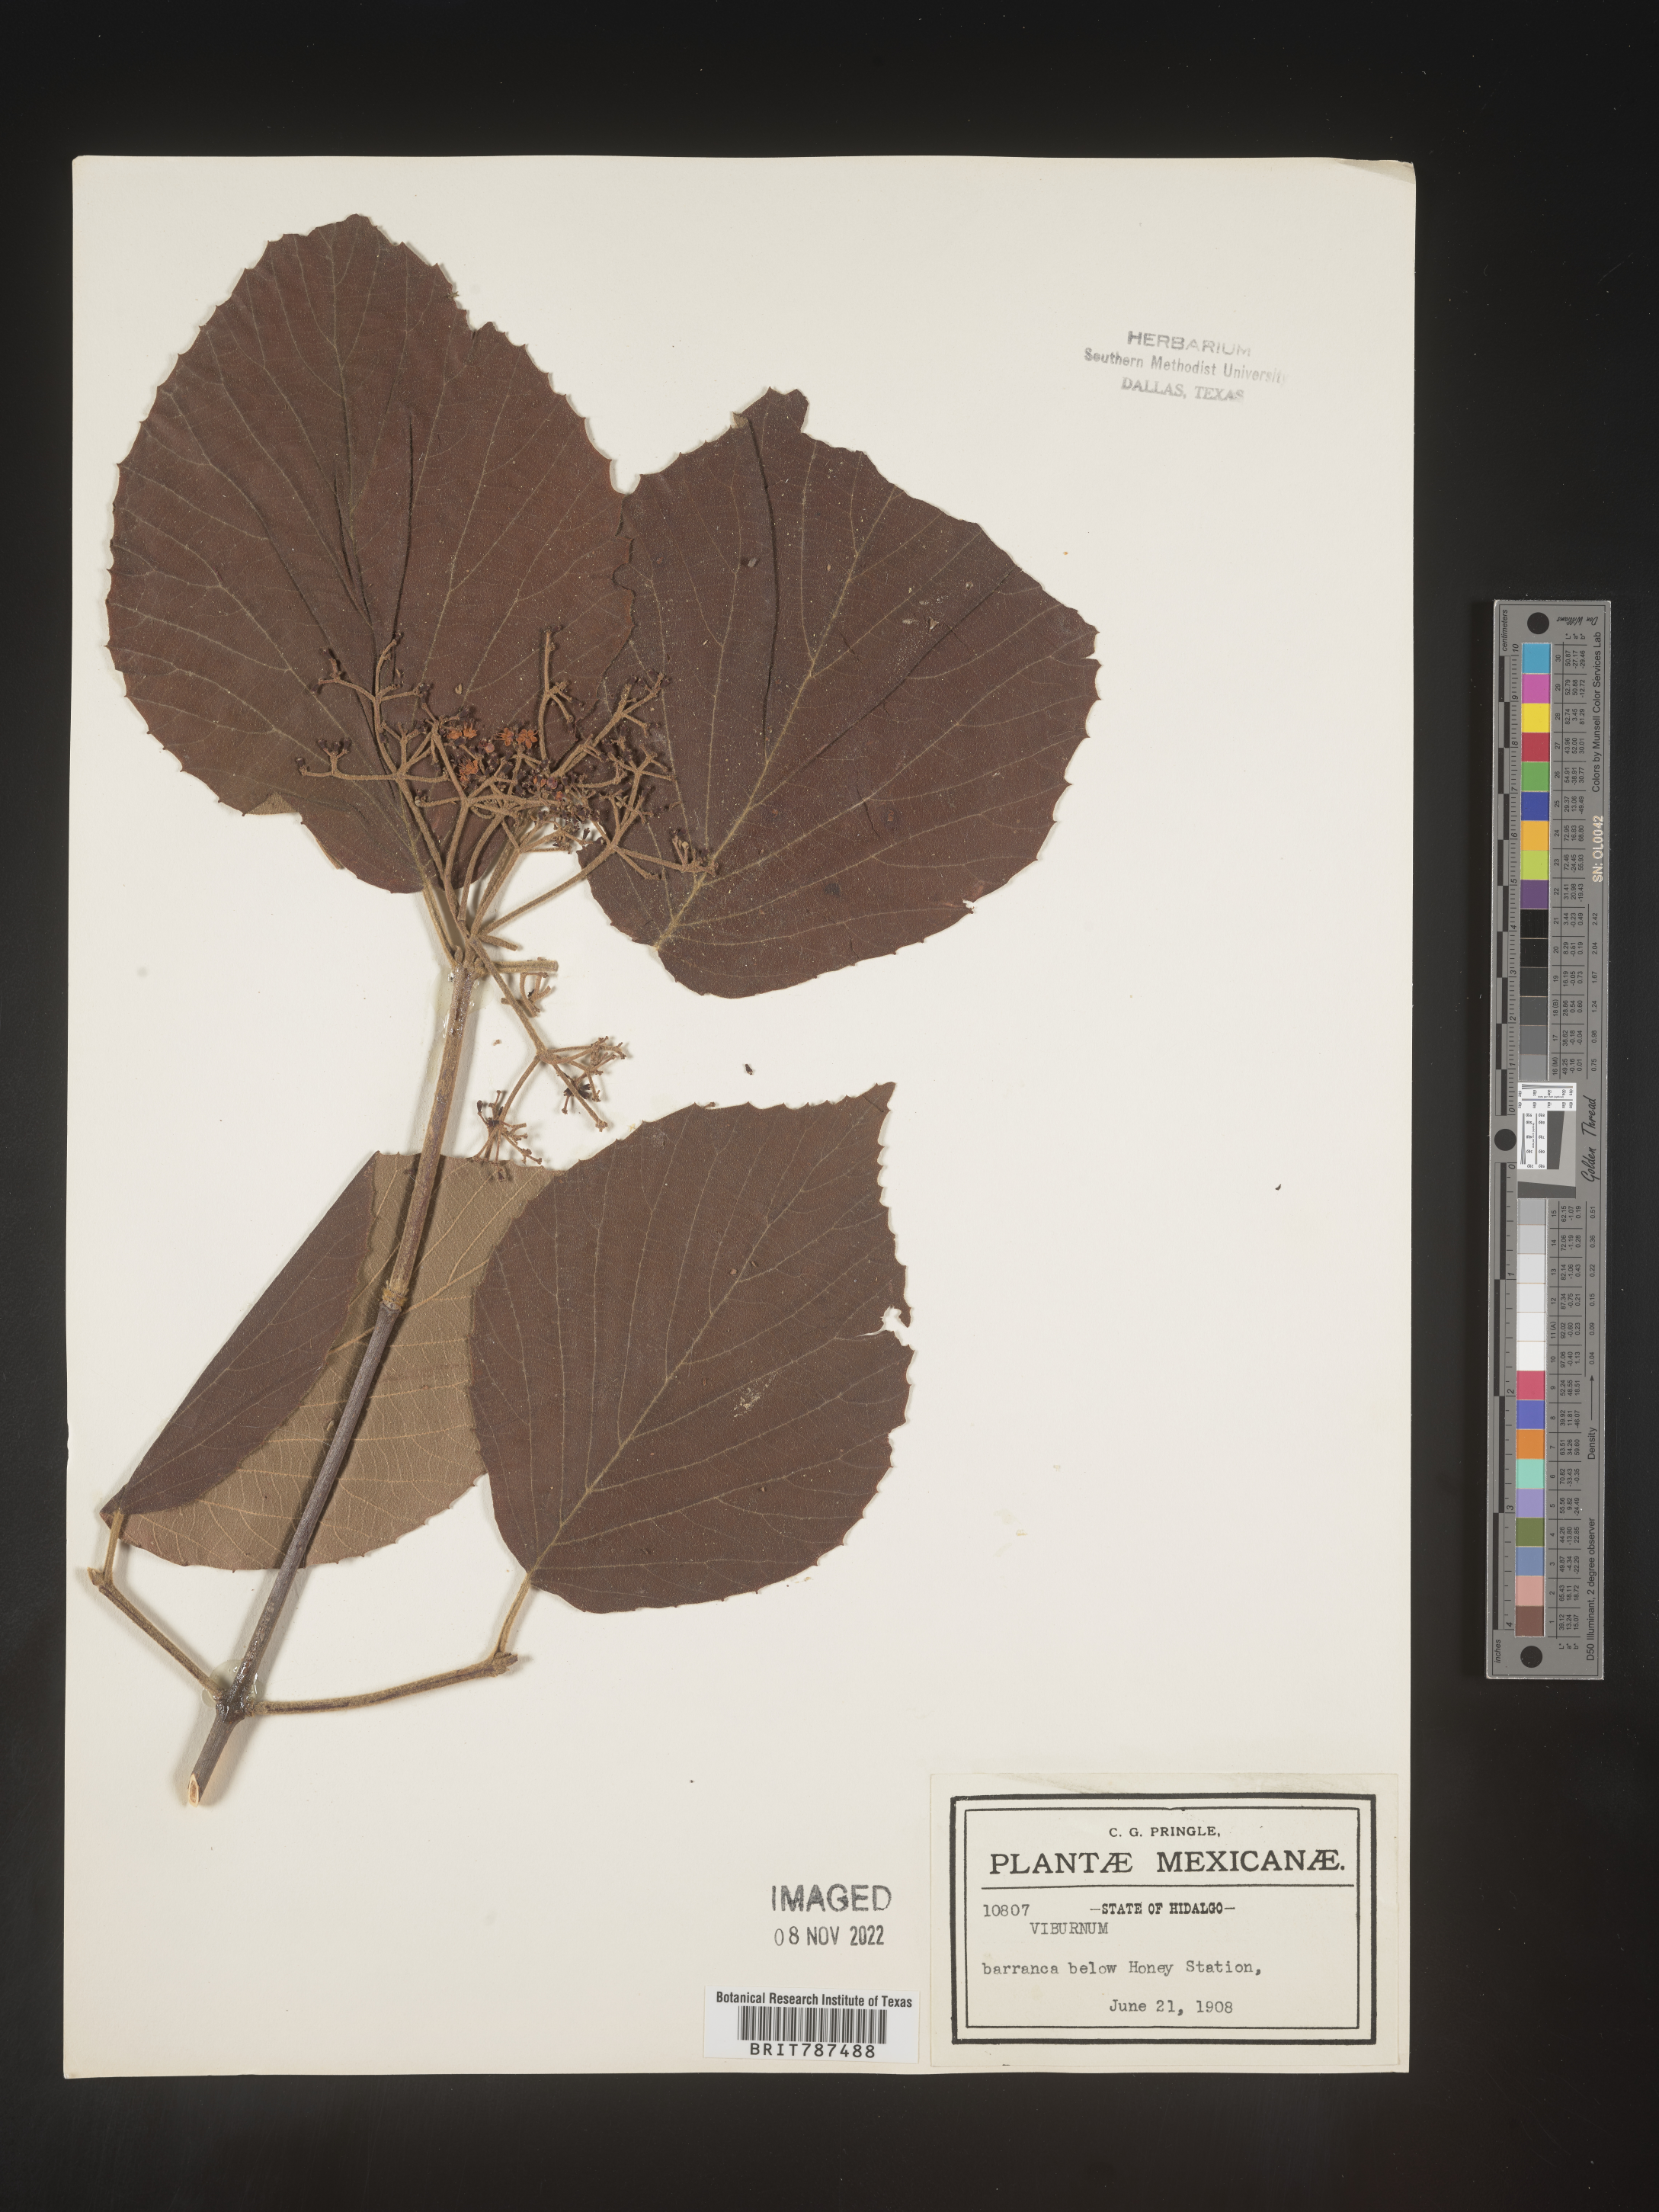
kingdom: Plantae
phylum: Tracheophyta
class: Magnoliopsida
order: Dipsacales
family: Viburnaceae
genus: Viburnum
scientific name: Viburnum
